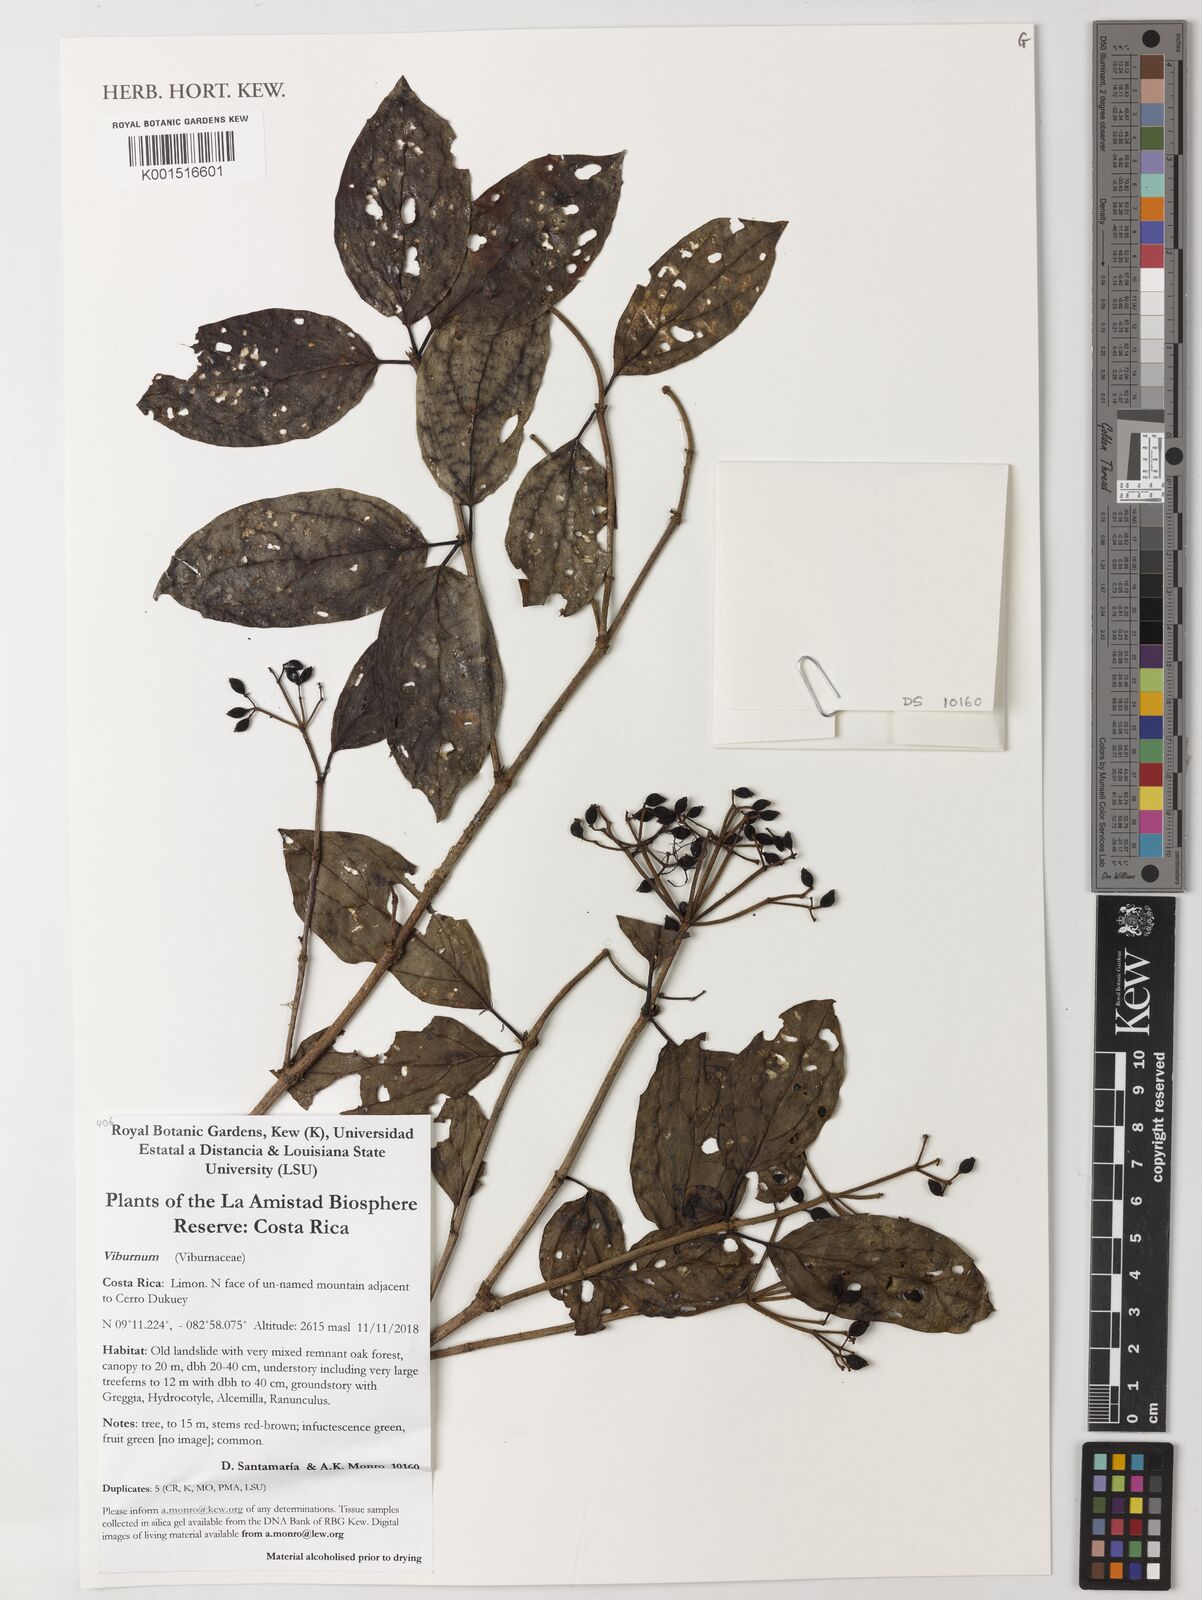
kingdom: Plantae
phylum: Tracheophyta
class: Magnoliopsida
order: Dipsacales
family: Viburnaceae
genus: Viburnum
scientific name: Viburnum
